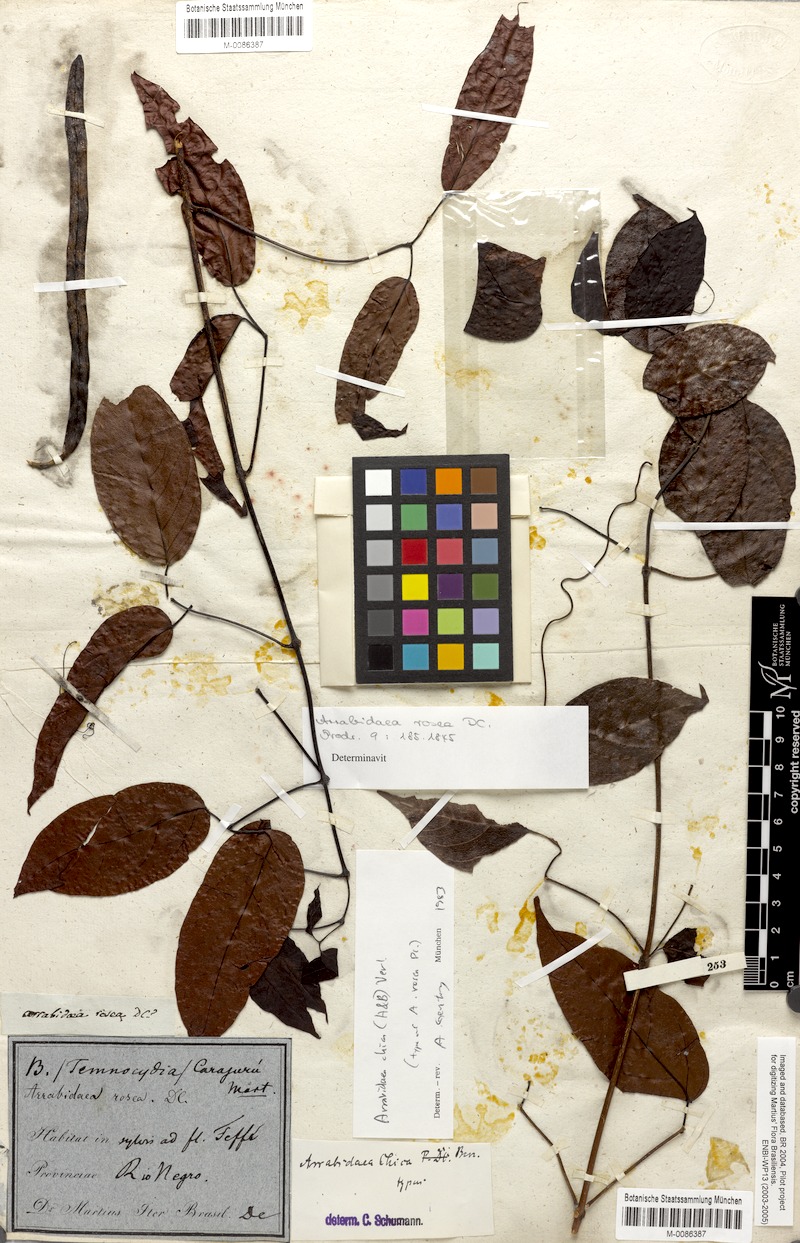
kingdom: Plantae
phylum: Tracheophyta
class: Magnoliopsida
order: Lamiales
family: Bignoniaceae
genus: Fridericia
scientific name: Fridericia chica
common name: Cricketvine
